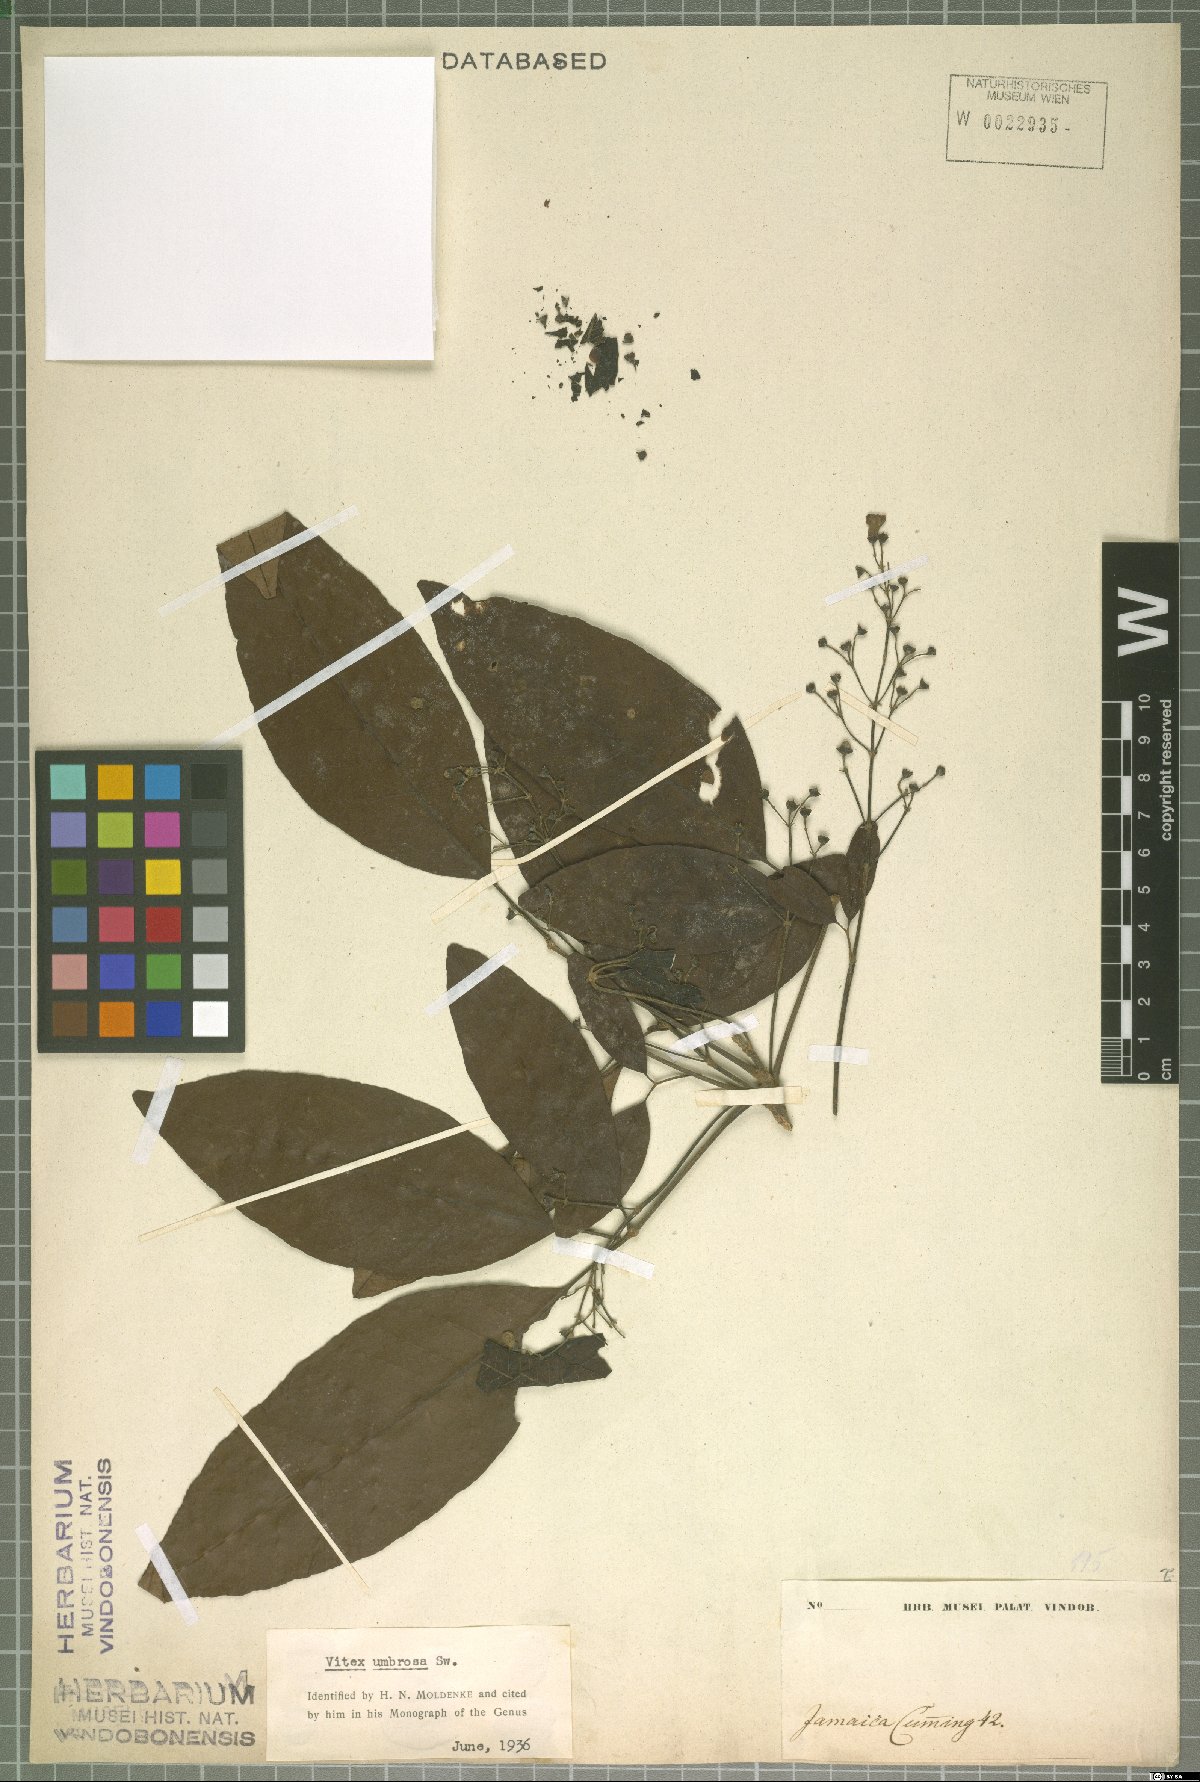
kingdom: Plantae
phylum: Tracheophyta
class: Magnoliopsida
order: Lamiales
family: Lamiaceae
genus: Vitex
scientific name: Vitex umbrosa
